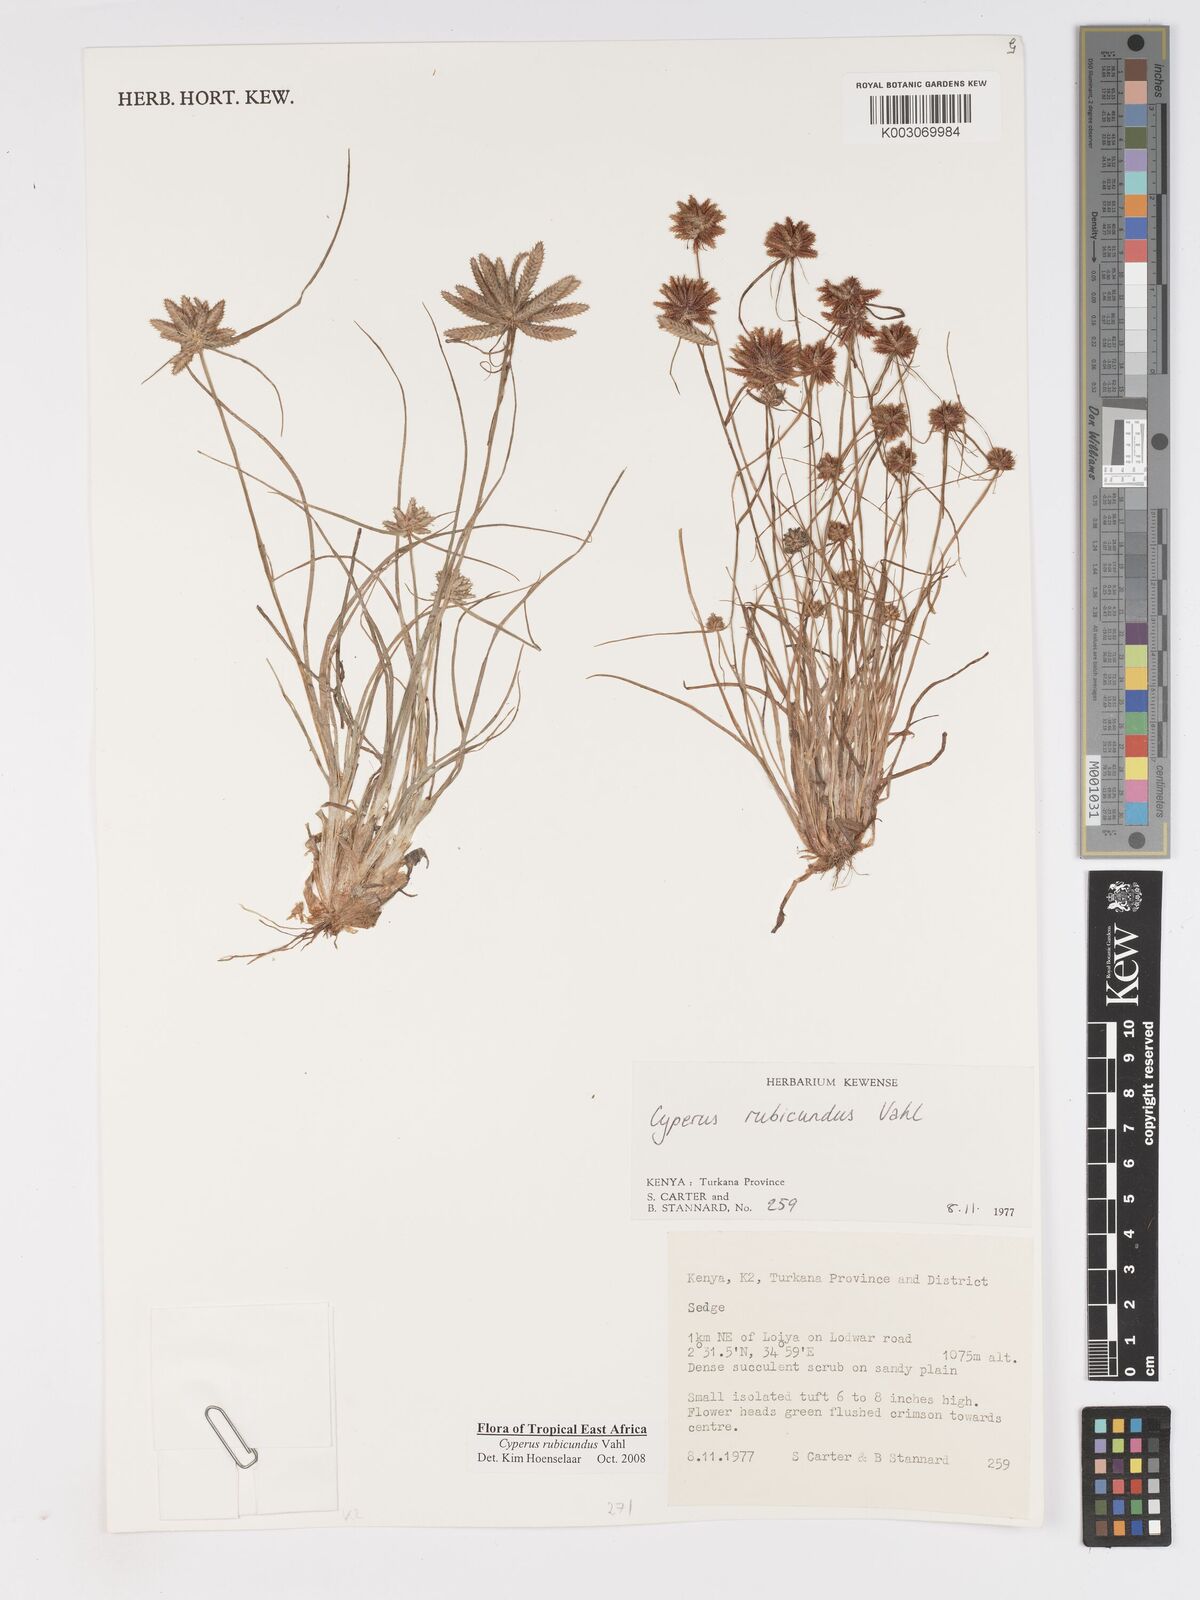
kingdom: Plantae
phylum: Tracheophyta
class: Liliopsida
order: Poales
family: Cyperaceae
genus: Cyperus
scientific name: Cyperus rubicundus
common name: Coco-grass
